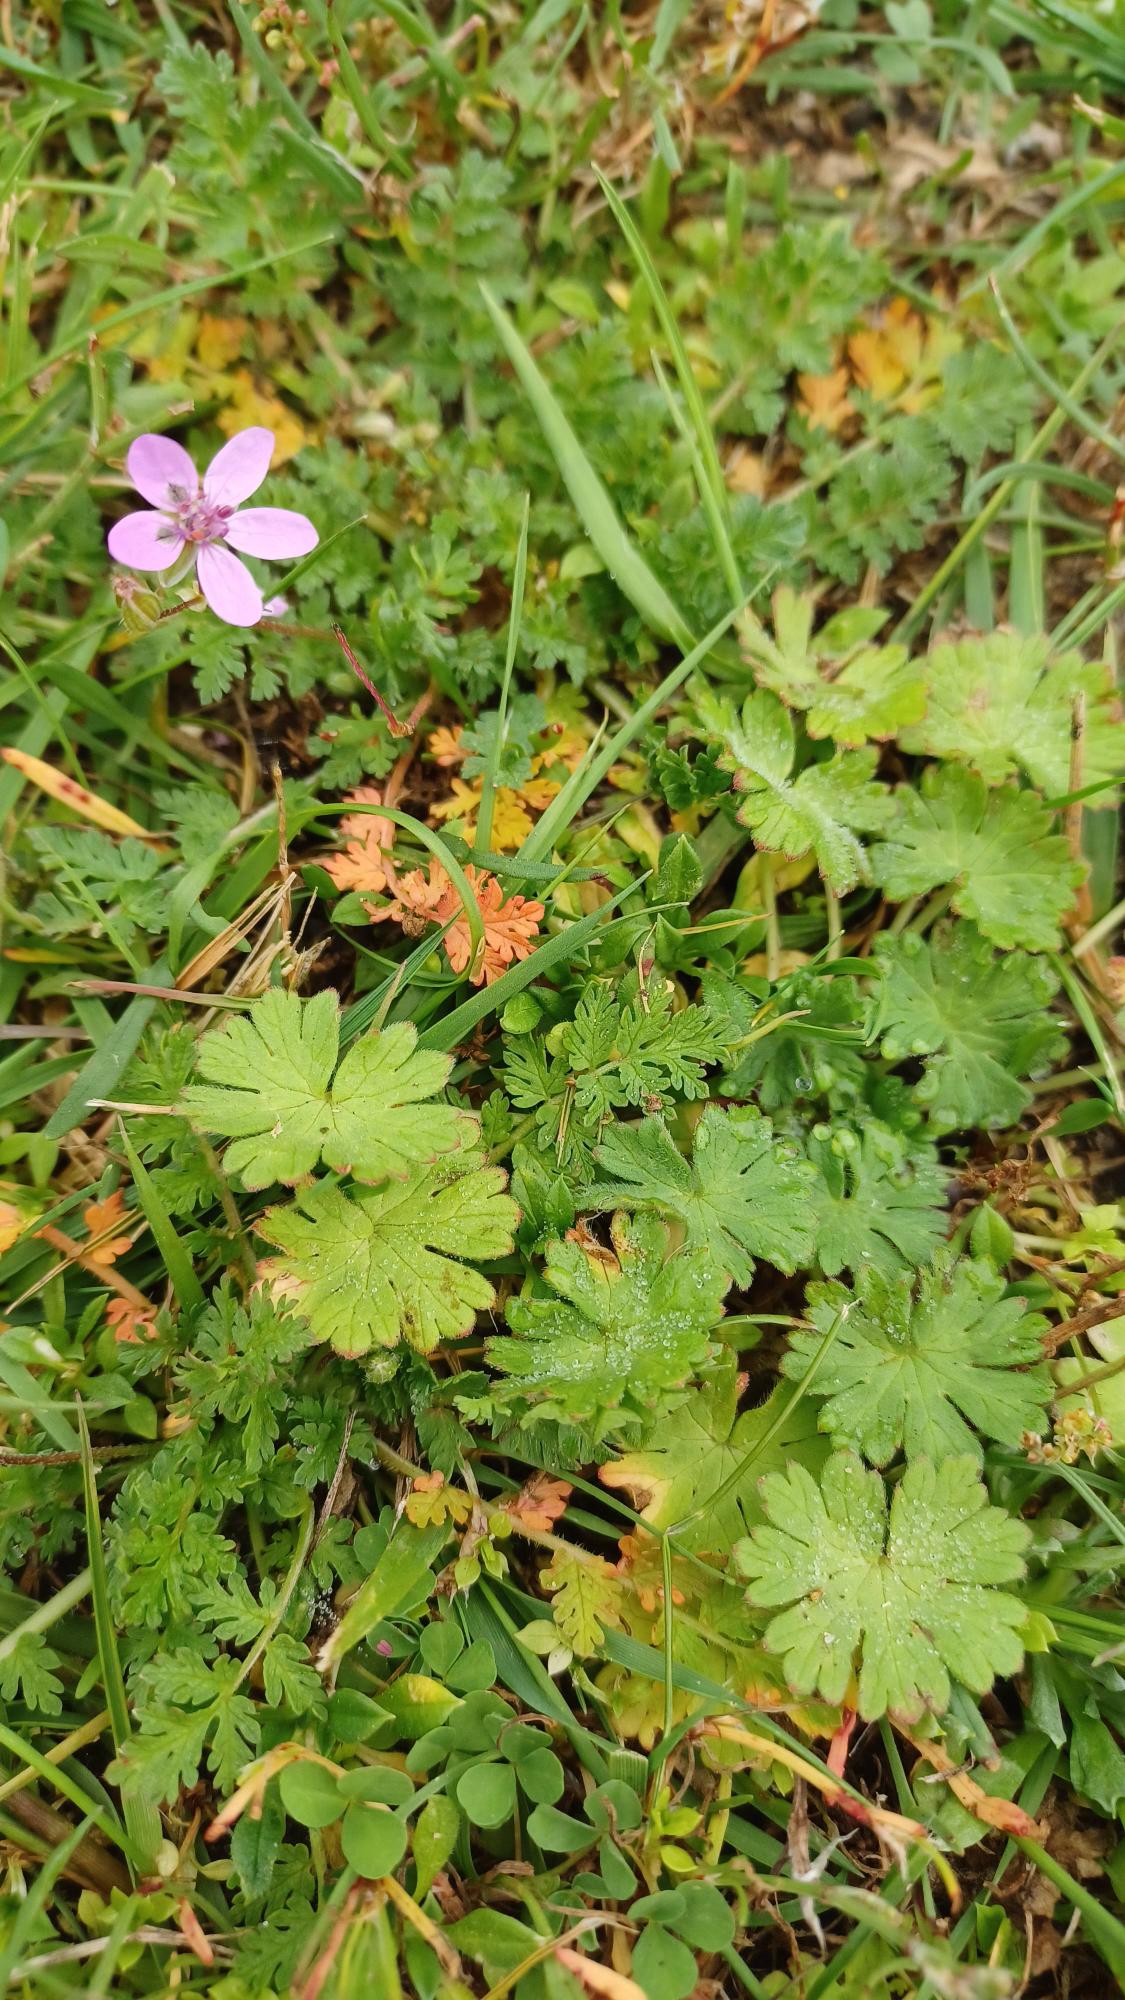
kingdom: Plantae
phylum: Tracheophyta
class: Magnoliopsida
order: Geraniales
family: Geraniaceae
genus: Erodium
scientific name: Erodium cicutarium
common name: Hejrenæb
